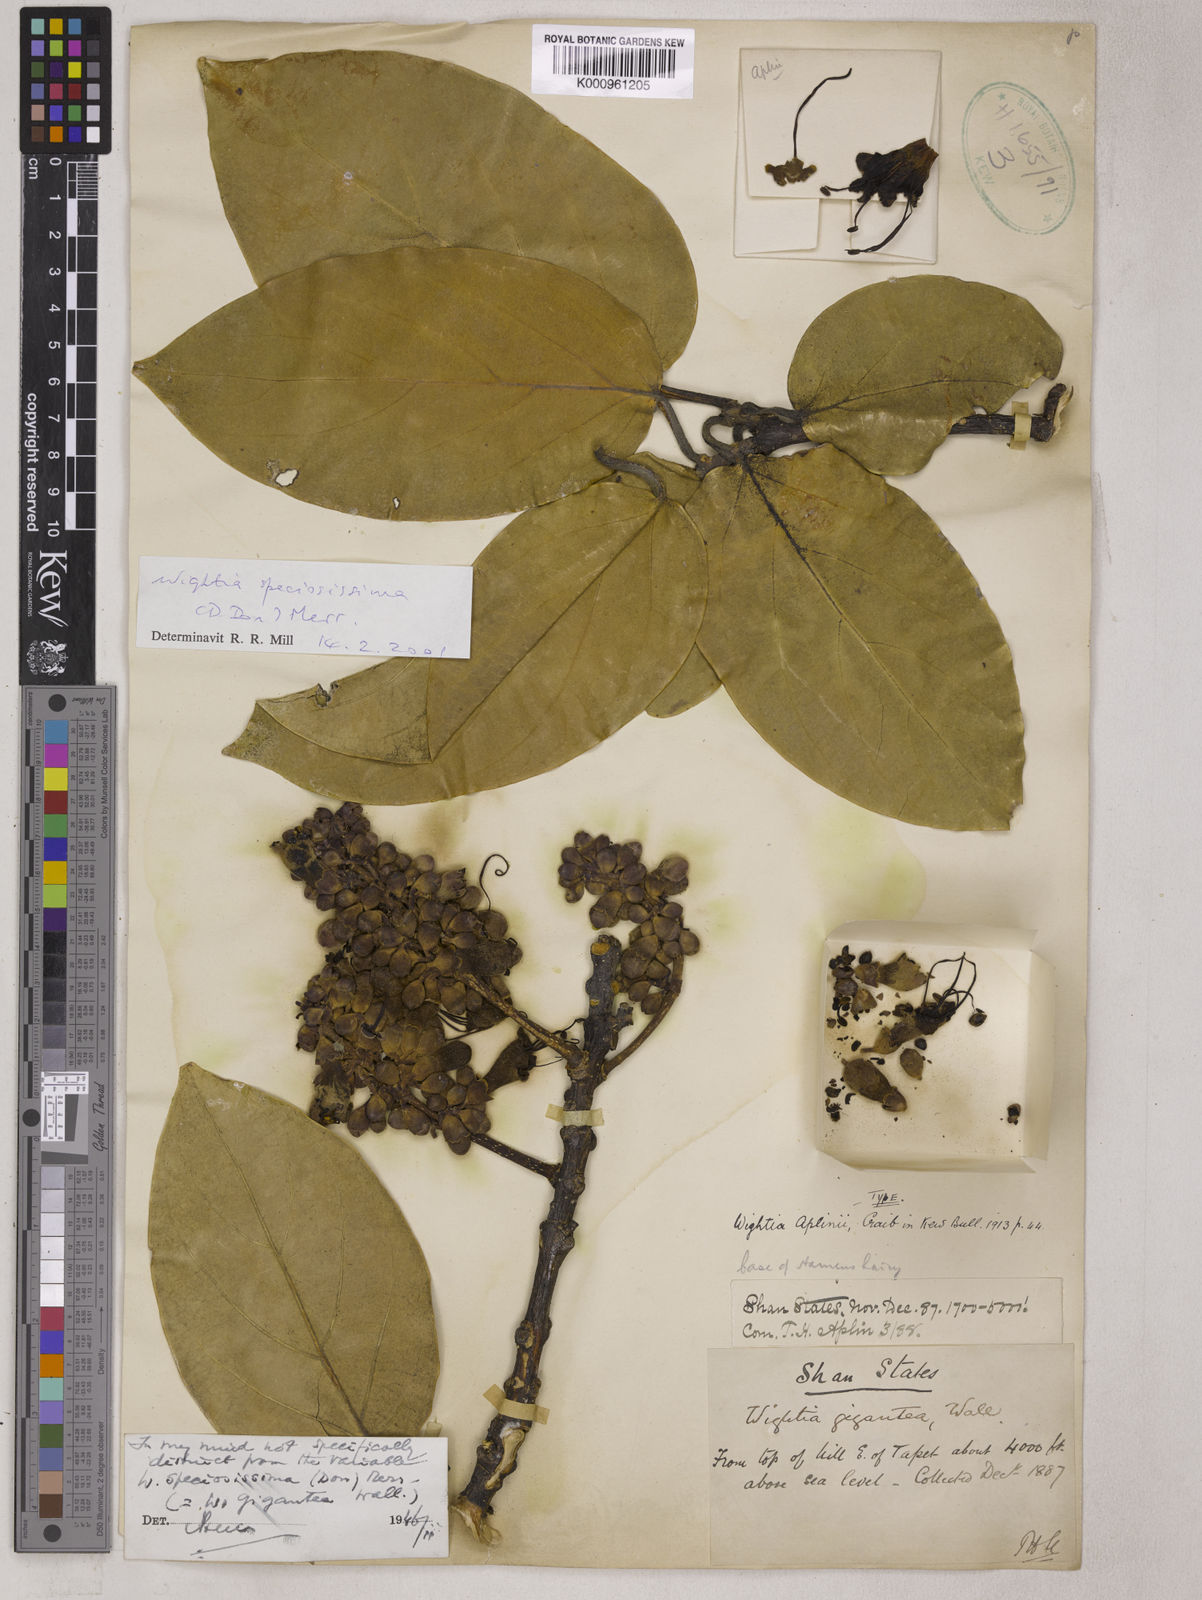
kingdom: Plantae
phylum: Tracheophyta
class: Magnoliopsida
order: Lamiales
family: Wightiaceae
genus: Wightia
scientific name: Wightia speciosissima
